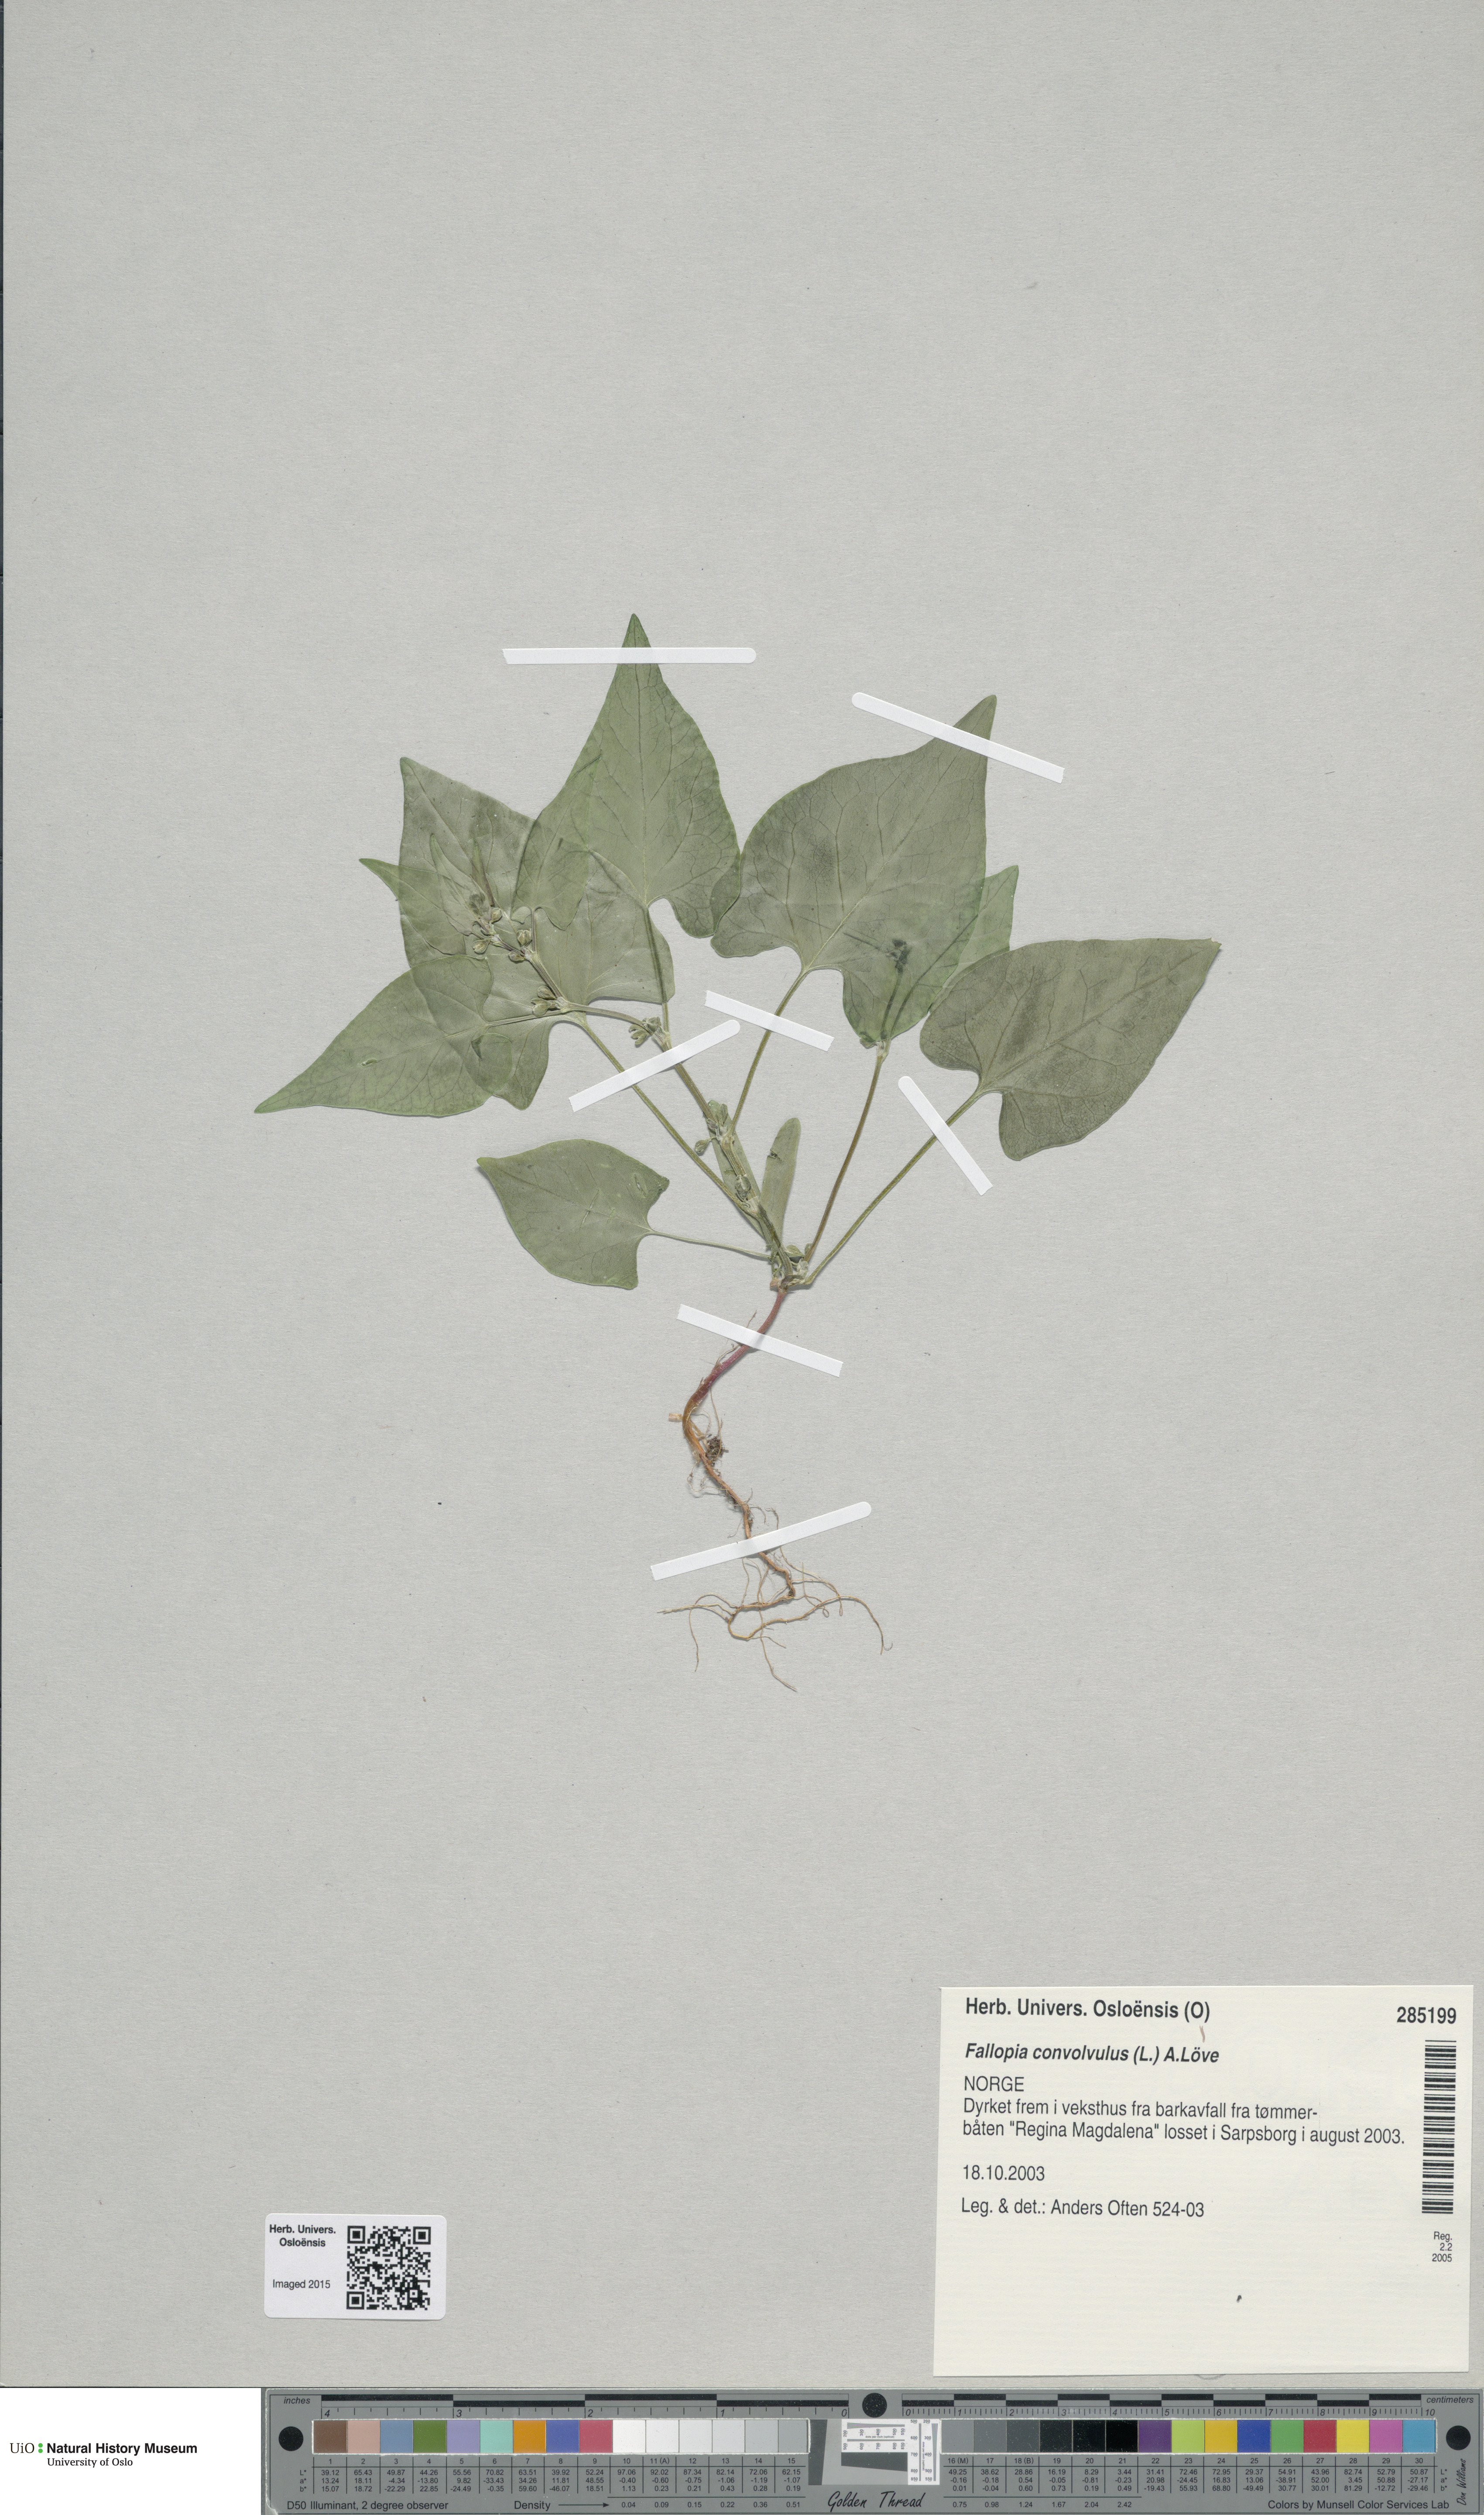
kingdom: Plantae
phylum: Tracheophyta
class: Magnoliopsida
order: Caryophyllales
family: Polygonaceae
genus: Fallopia
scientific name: Fallopia convolvulus
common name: Black bindweed
